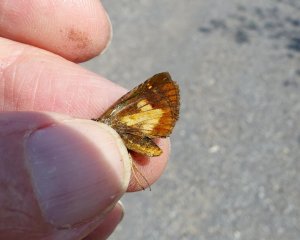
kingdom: Animalia
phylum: Arthropoda
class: Insecta
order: Lepidoptera
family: Hesperiidae
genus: Poanes
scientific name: Poanes massasoit
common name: Mulberry Wing
